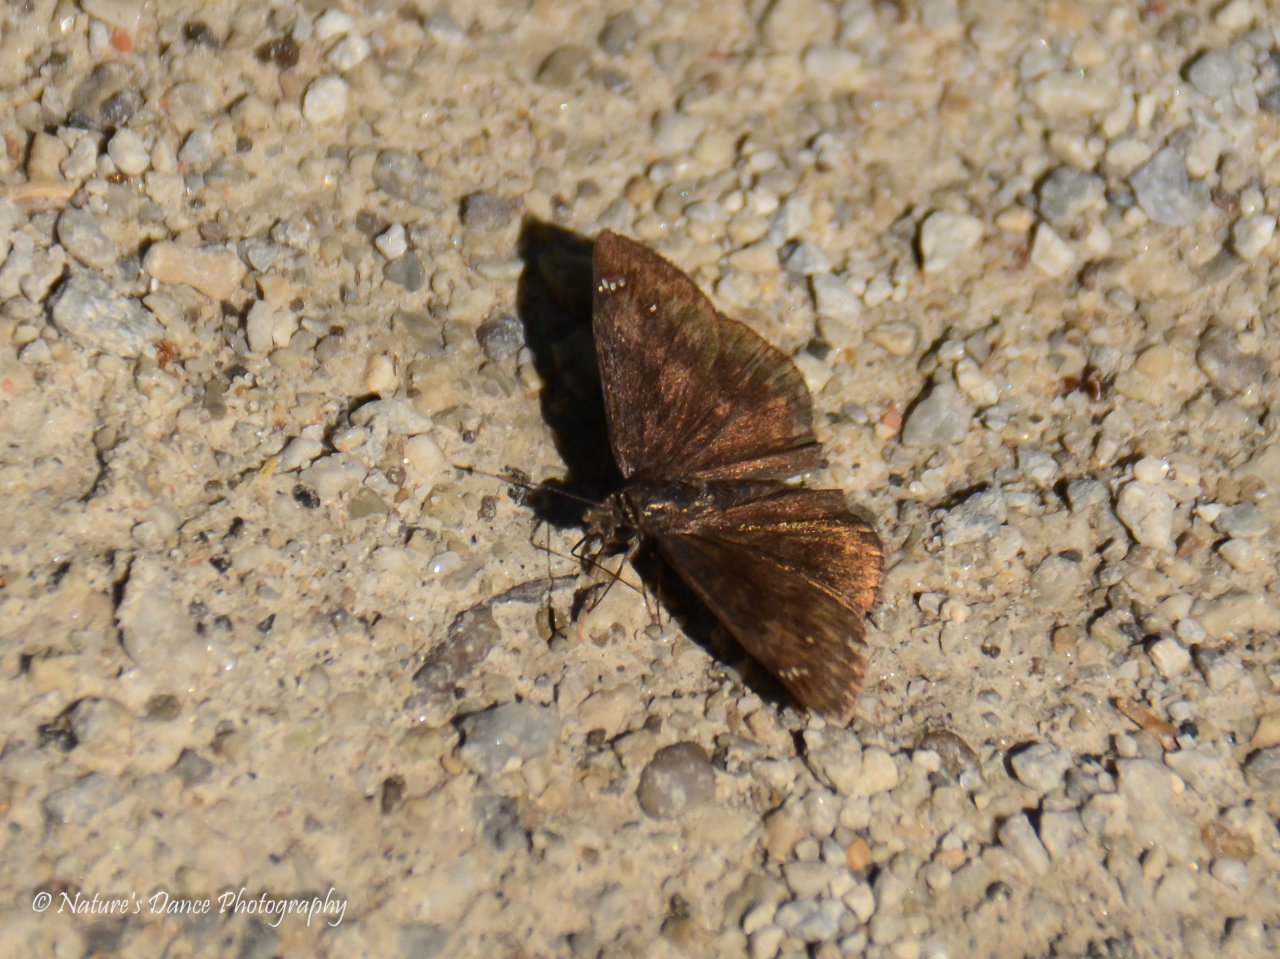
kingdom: Animalia
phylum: Arthropoda
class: Insecta
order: Lepidoptera
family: Hesperiidae
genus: Gesta
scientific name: Gesta
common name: Wild Indigo Duskywing
